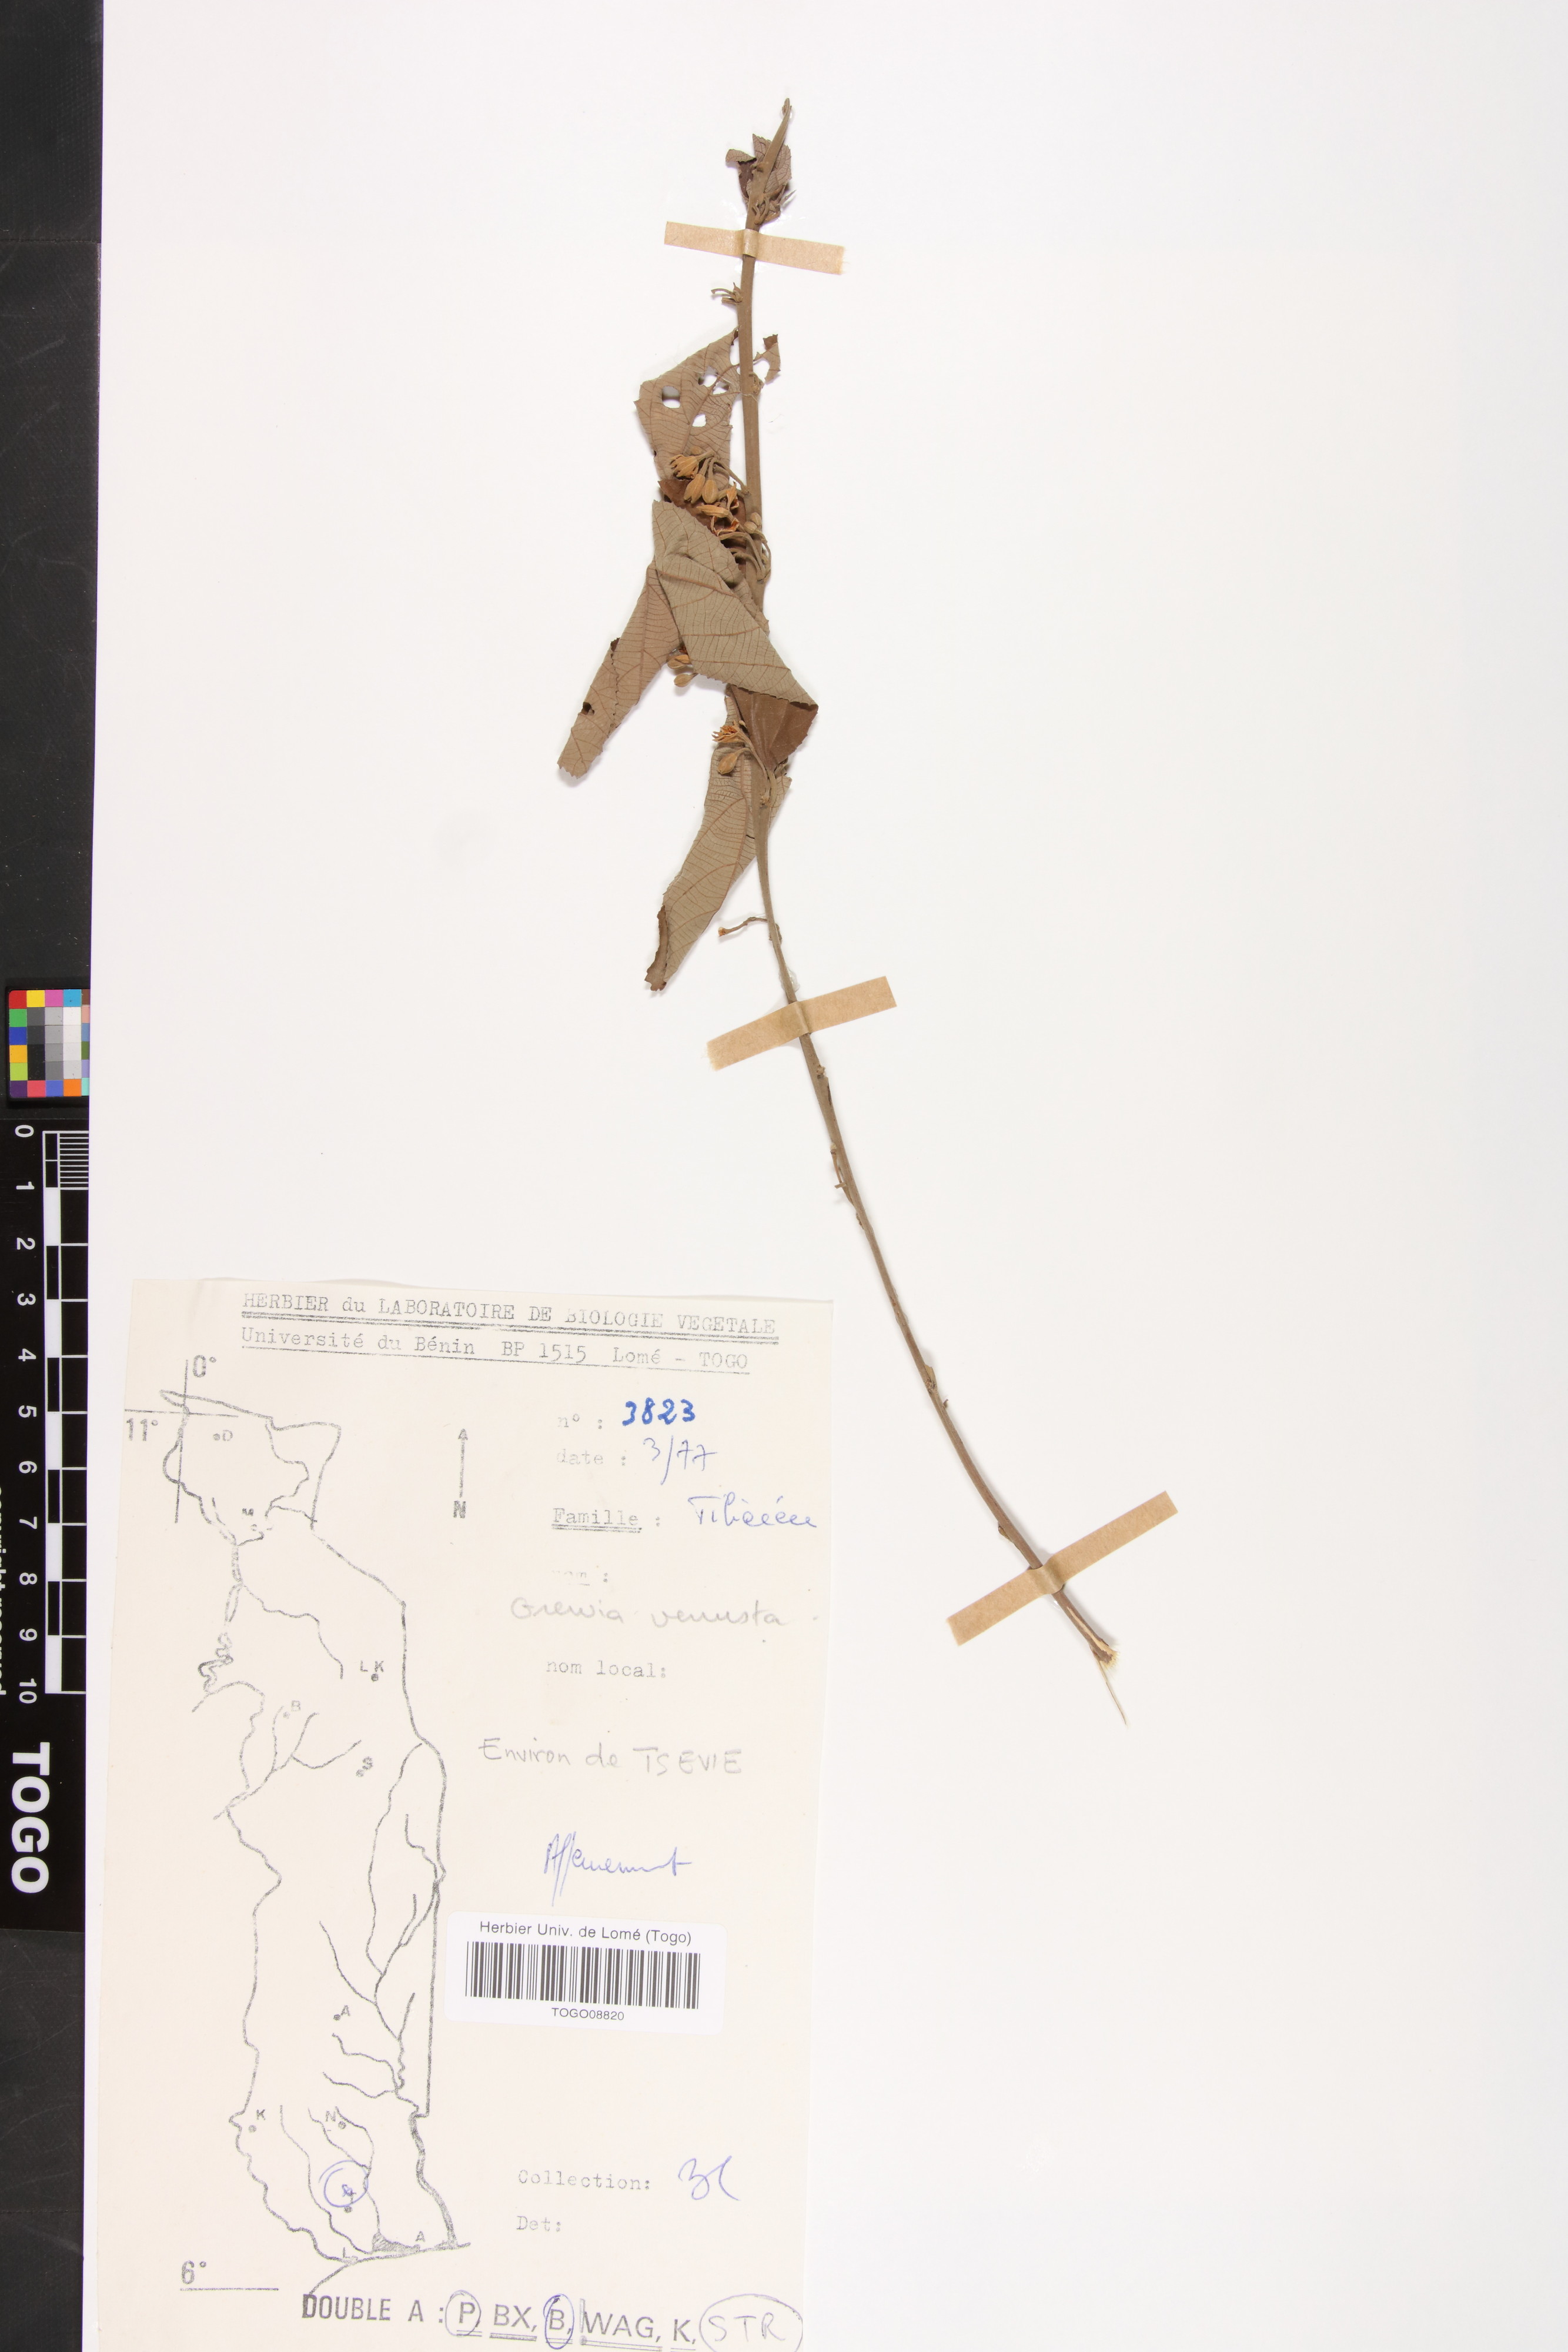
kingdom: Plantae
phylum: Tracheophyta
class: Magnoliopsida
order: Malvales
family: Malvaceae
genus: Grewia
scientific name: Grewia mollis
